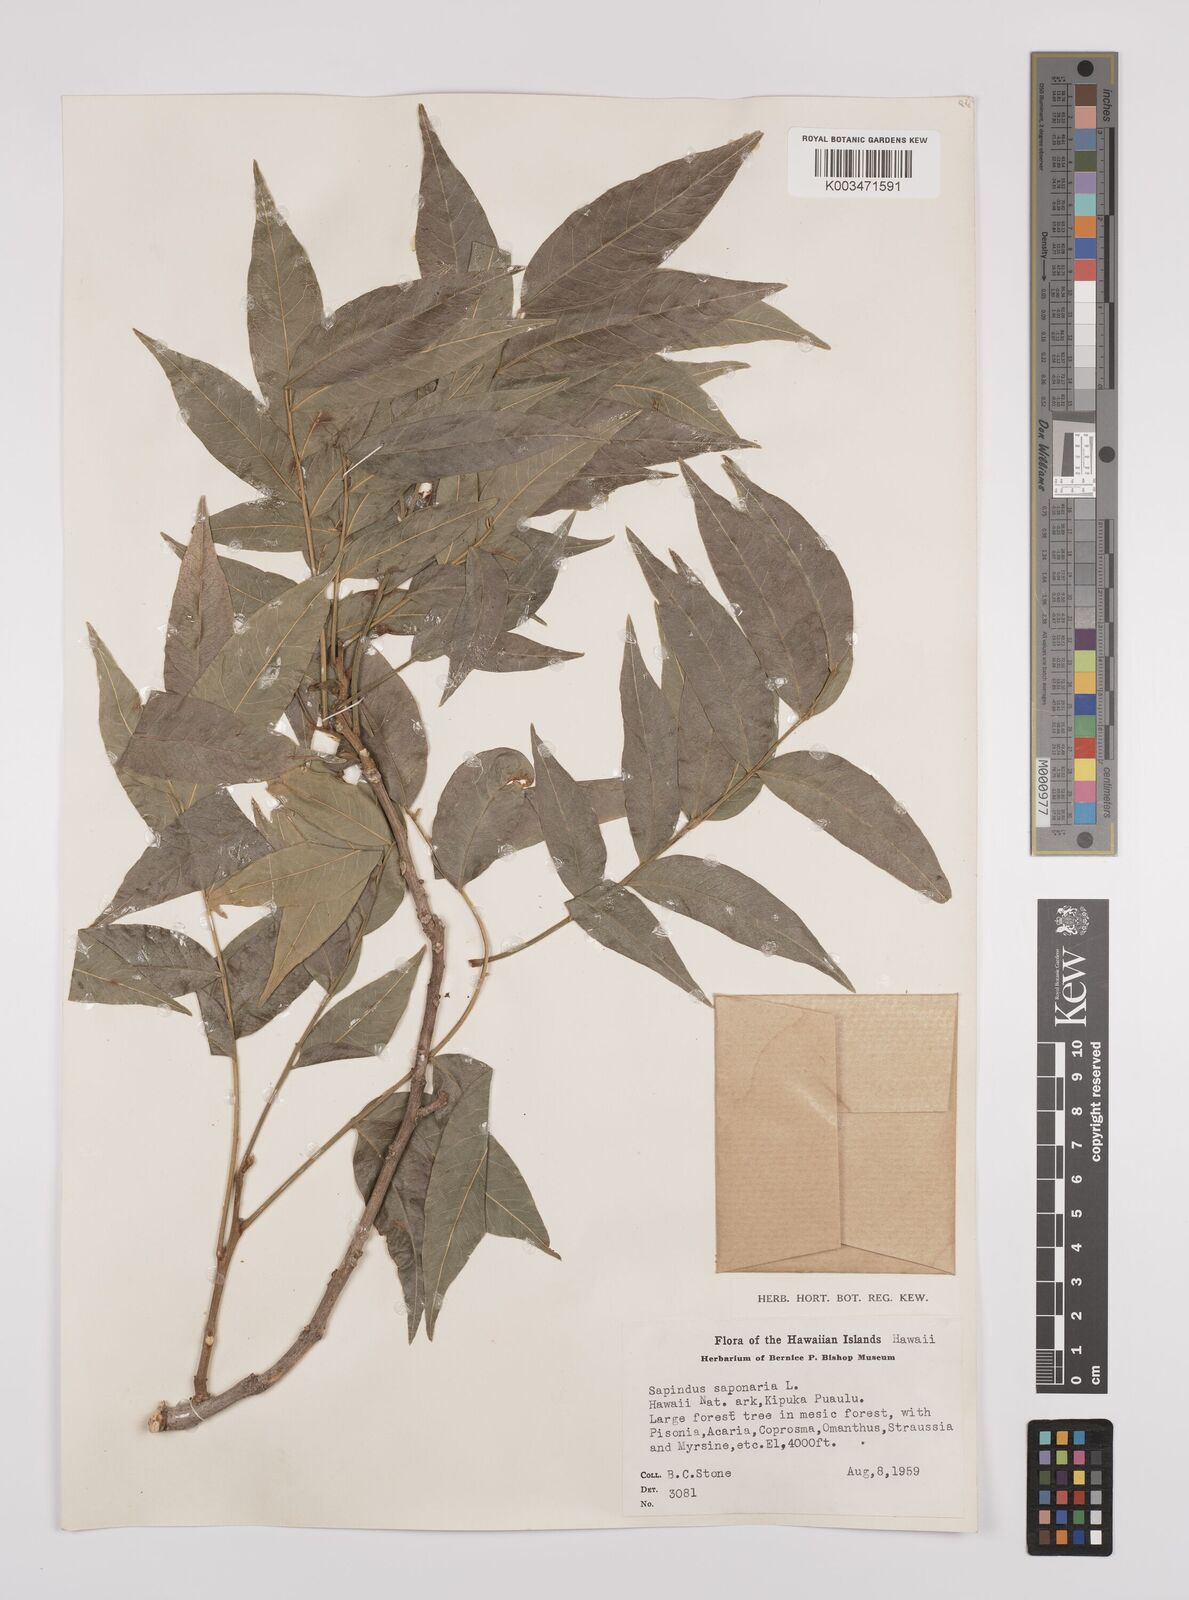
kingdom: Plantae
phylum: Tracheophyta
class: Magnoliopsida
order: Sapindales
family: Sapindaceae
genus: Sapindus
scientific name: Sapindus
